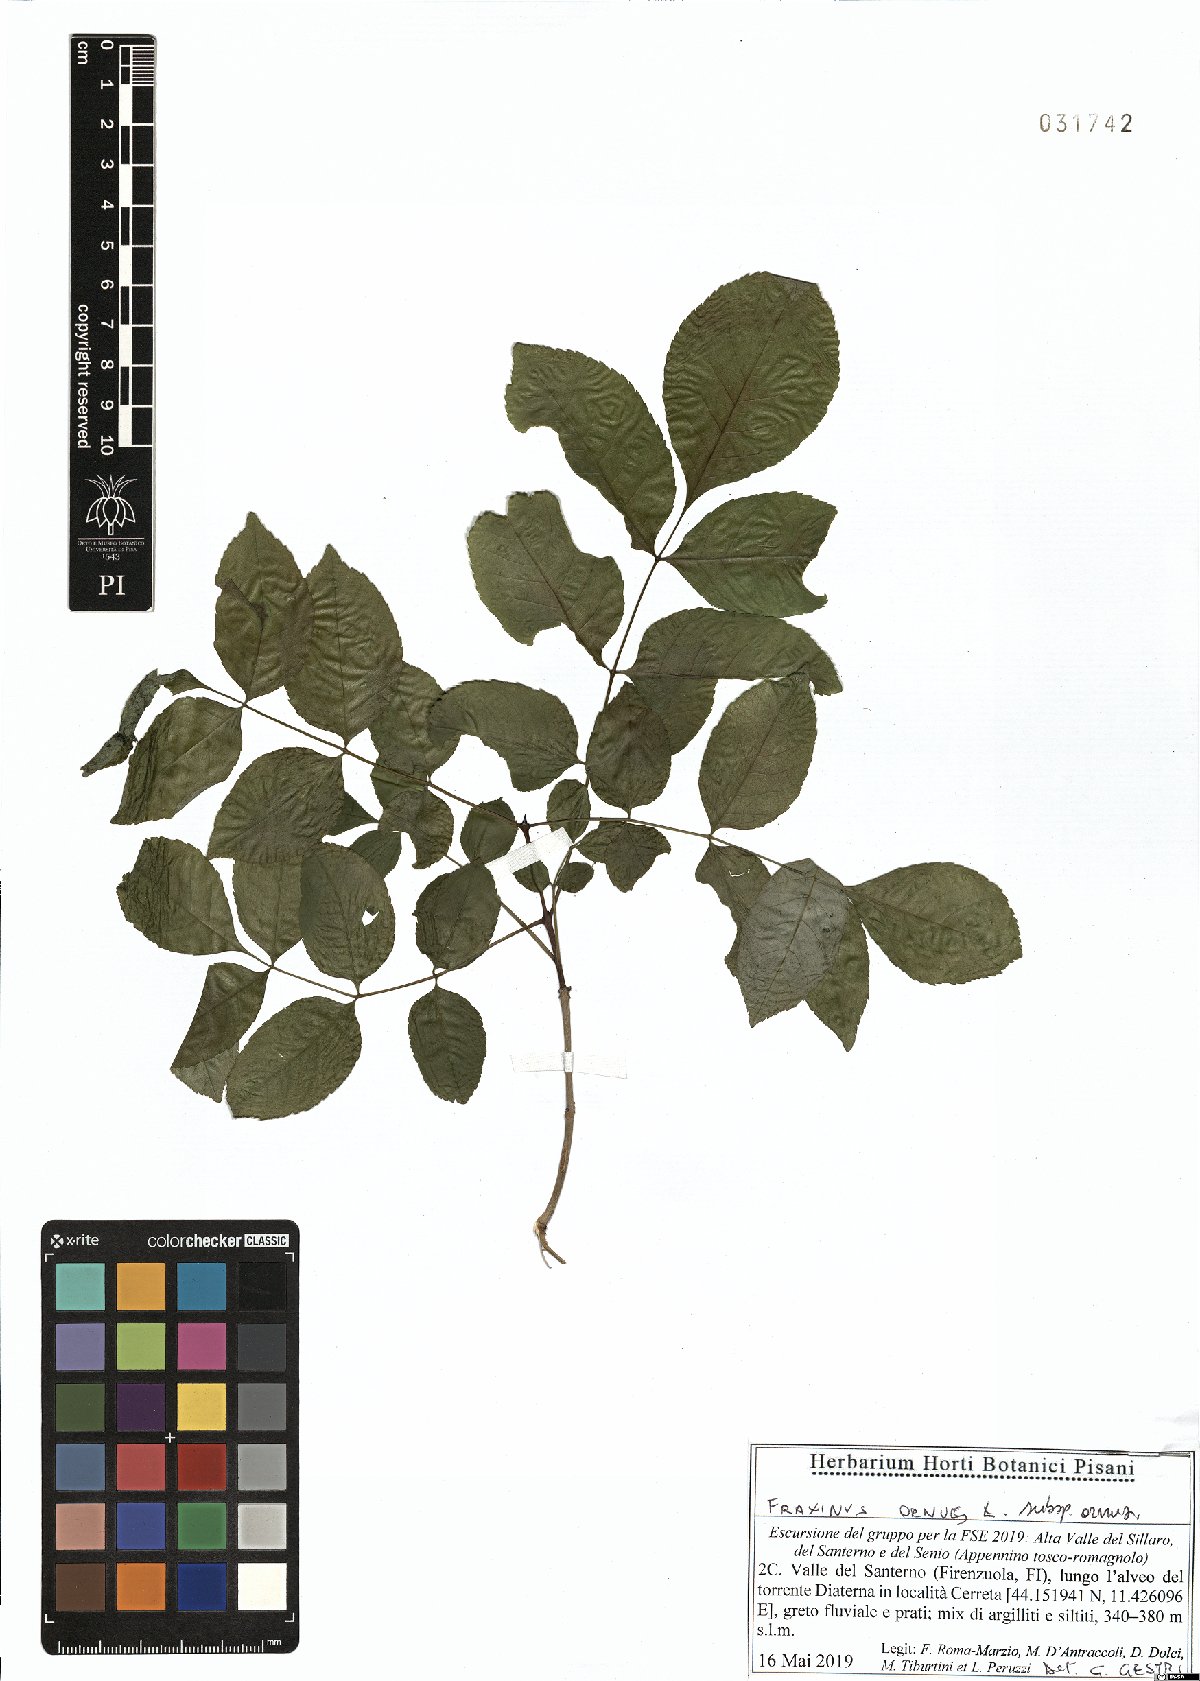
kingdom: Plantae
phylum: Tracheophyta
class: Magnoliopsida
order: Lamiales
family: Oleaceae
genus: Fraxinus
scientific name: Fraxinus ornus
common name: Manna ash
